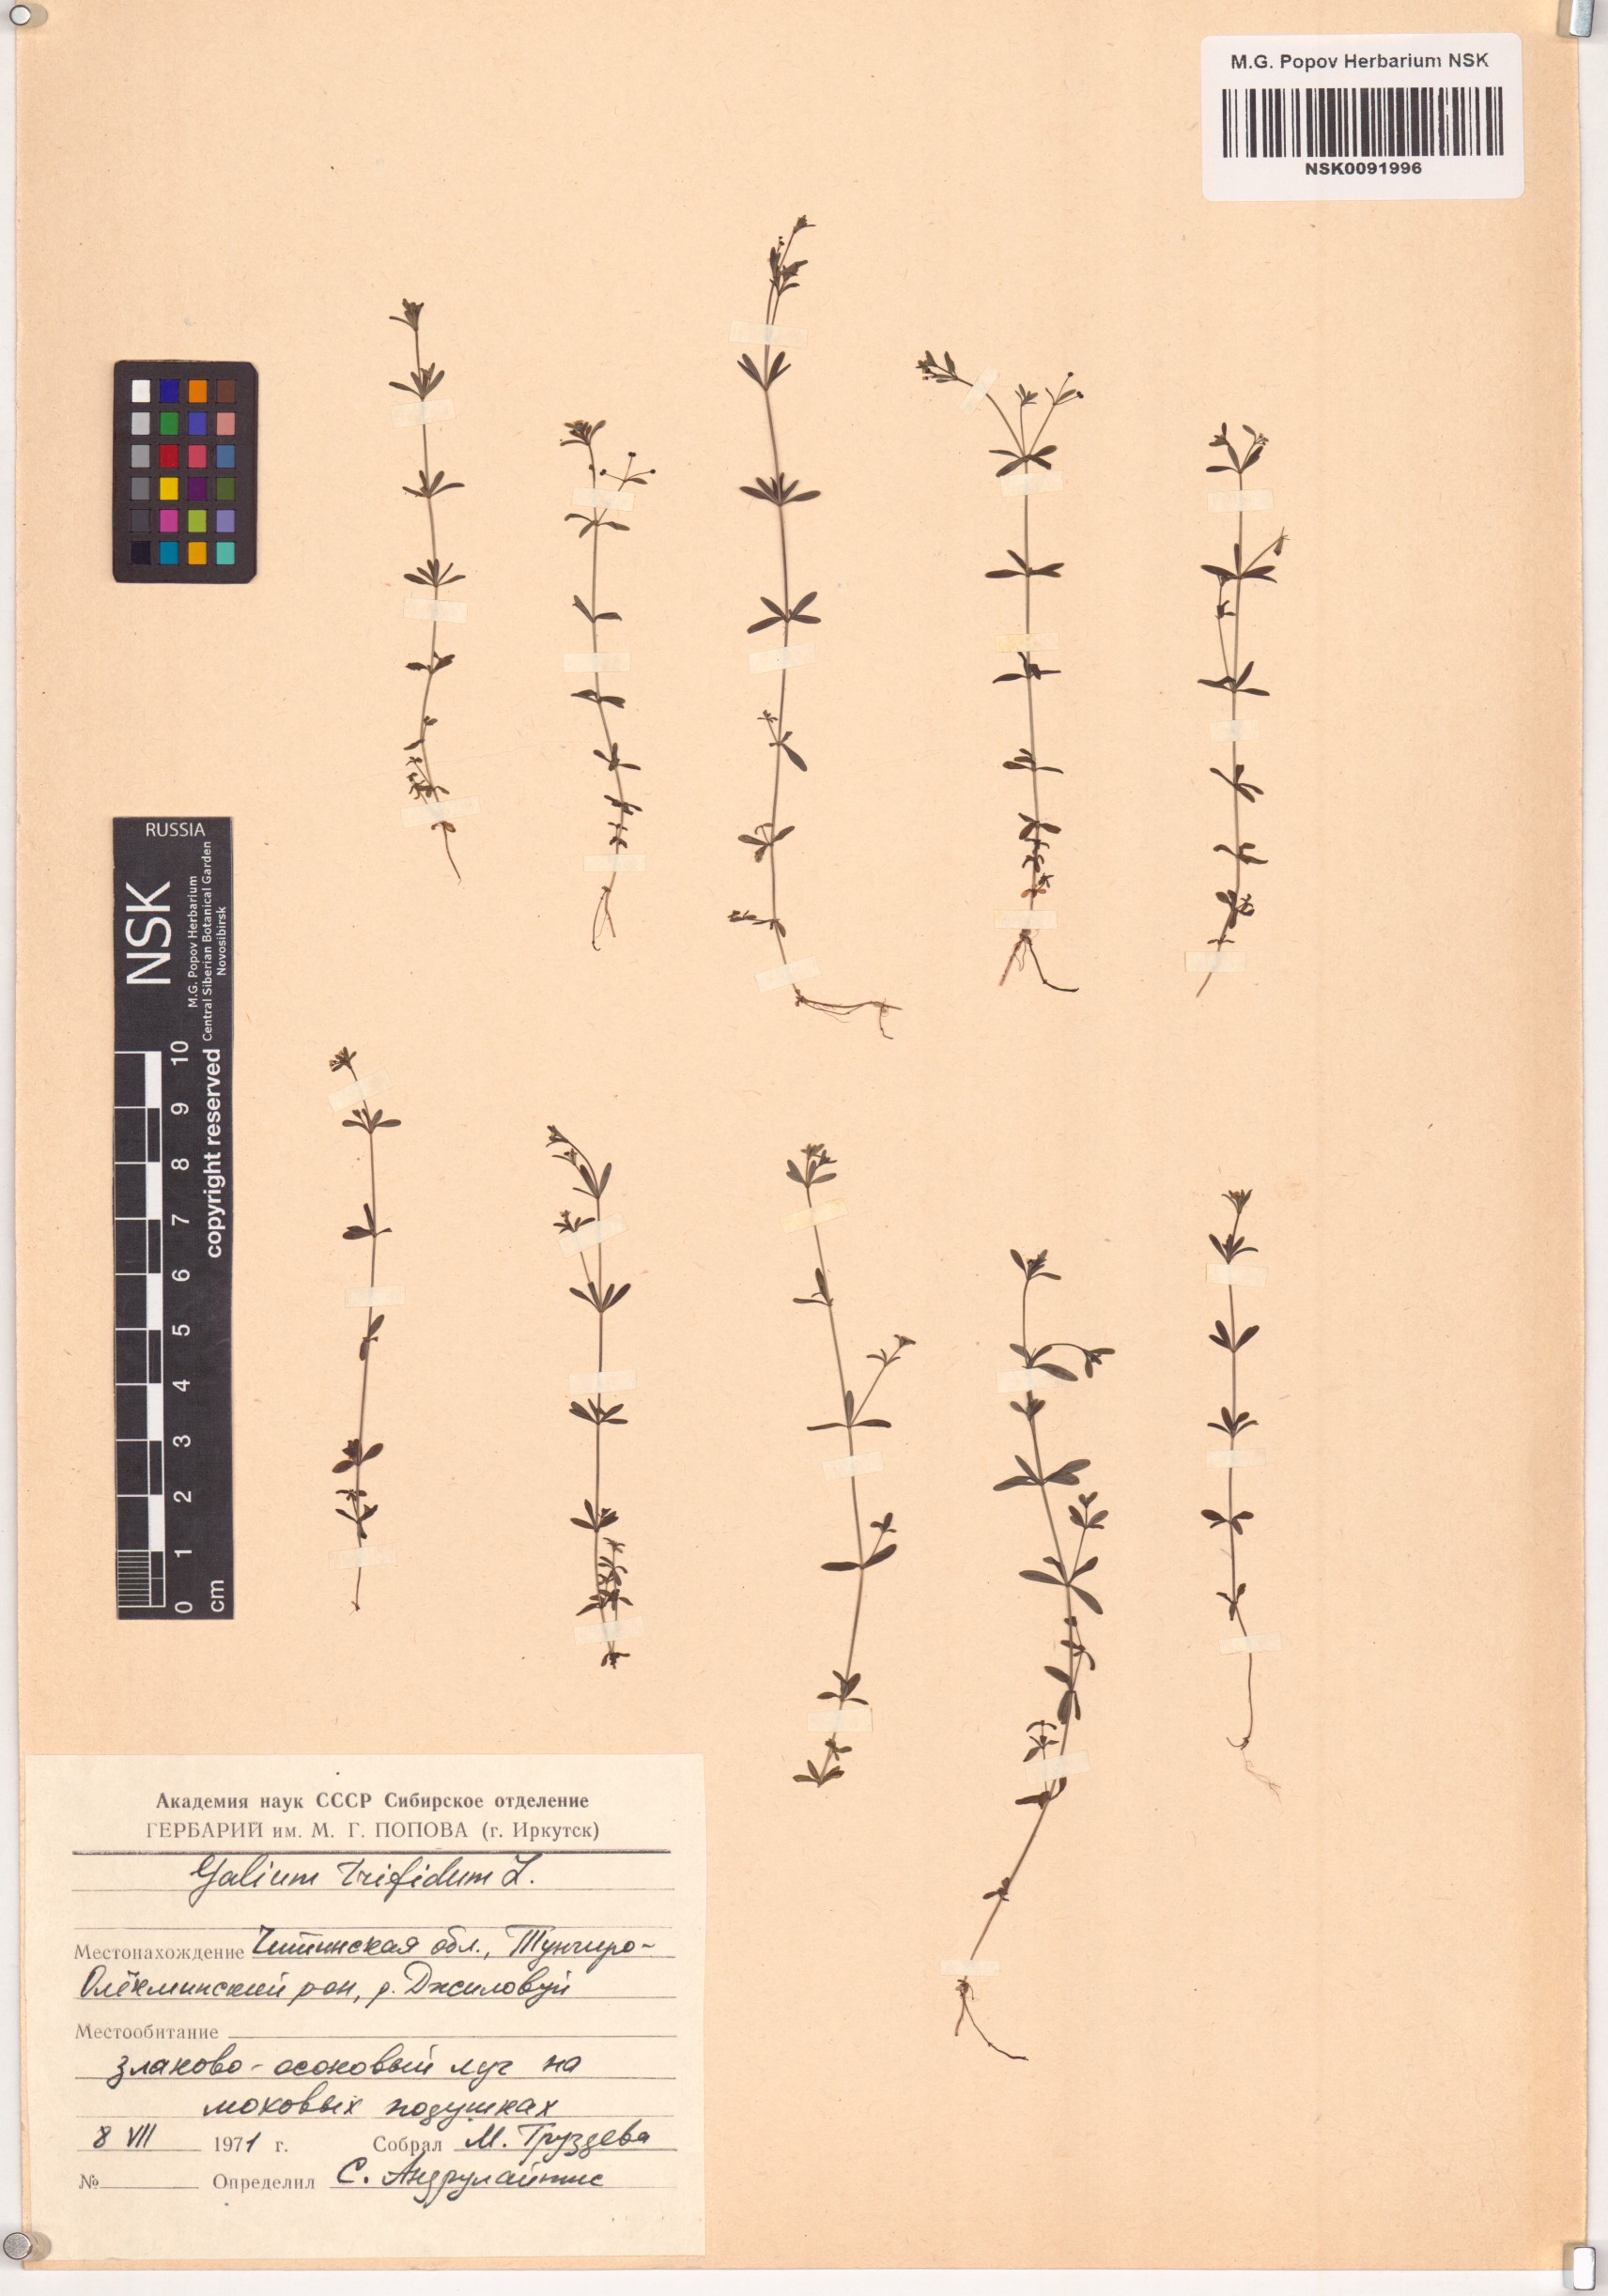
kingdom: Plantae
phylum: Tracheophyta
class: Magnoliopsida
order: Gentianales
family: Rubiaceae
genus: Galium
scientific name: Galium trifidum
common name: Small bedstraw
